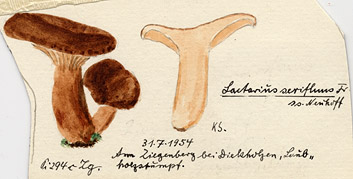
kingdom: Fungi
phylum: Basidiomycota
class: Agaricomycetes
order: Russulales
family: Russulaceae
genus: Lactarius
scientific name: Lactarius serifluus
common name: Watery milk-cap
